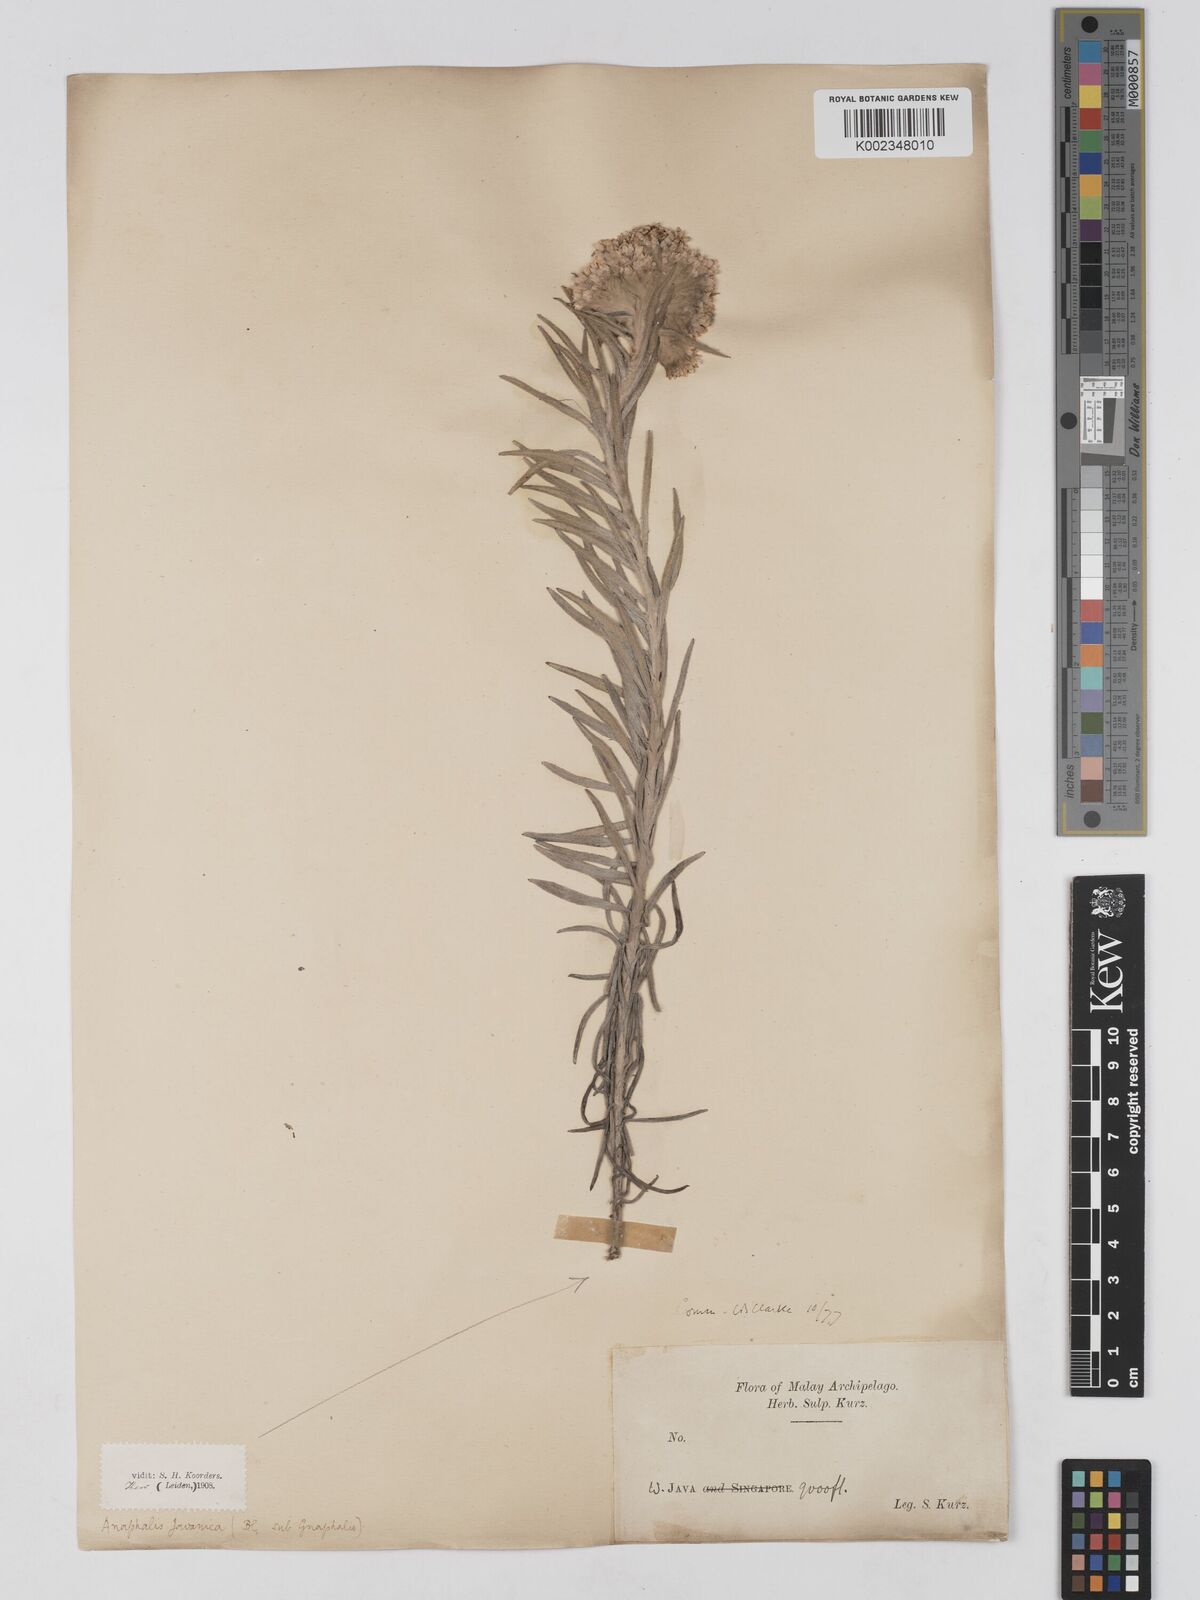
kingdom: Plantae
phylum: Tracheophyta
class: Magnoliopsida
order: Asterales
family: Asteraceae
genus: Anaphalis
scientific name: Anaphalis javanica
